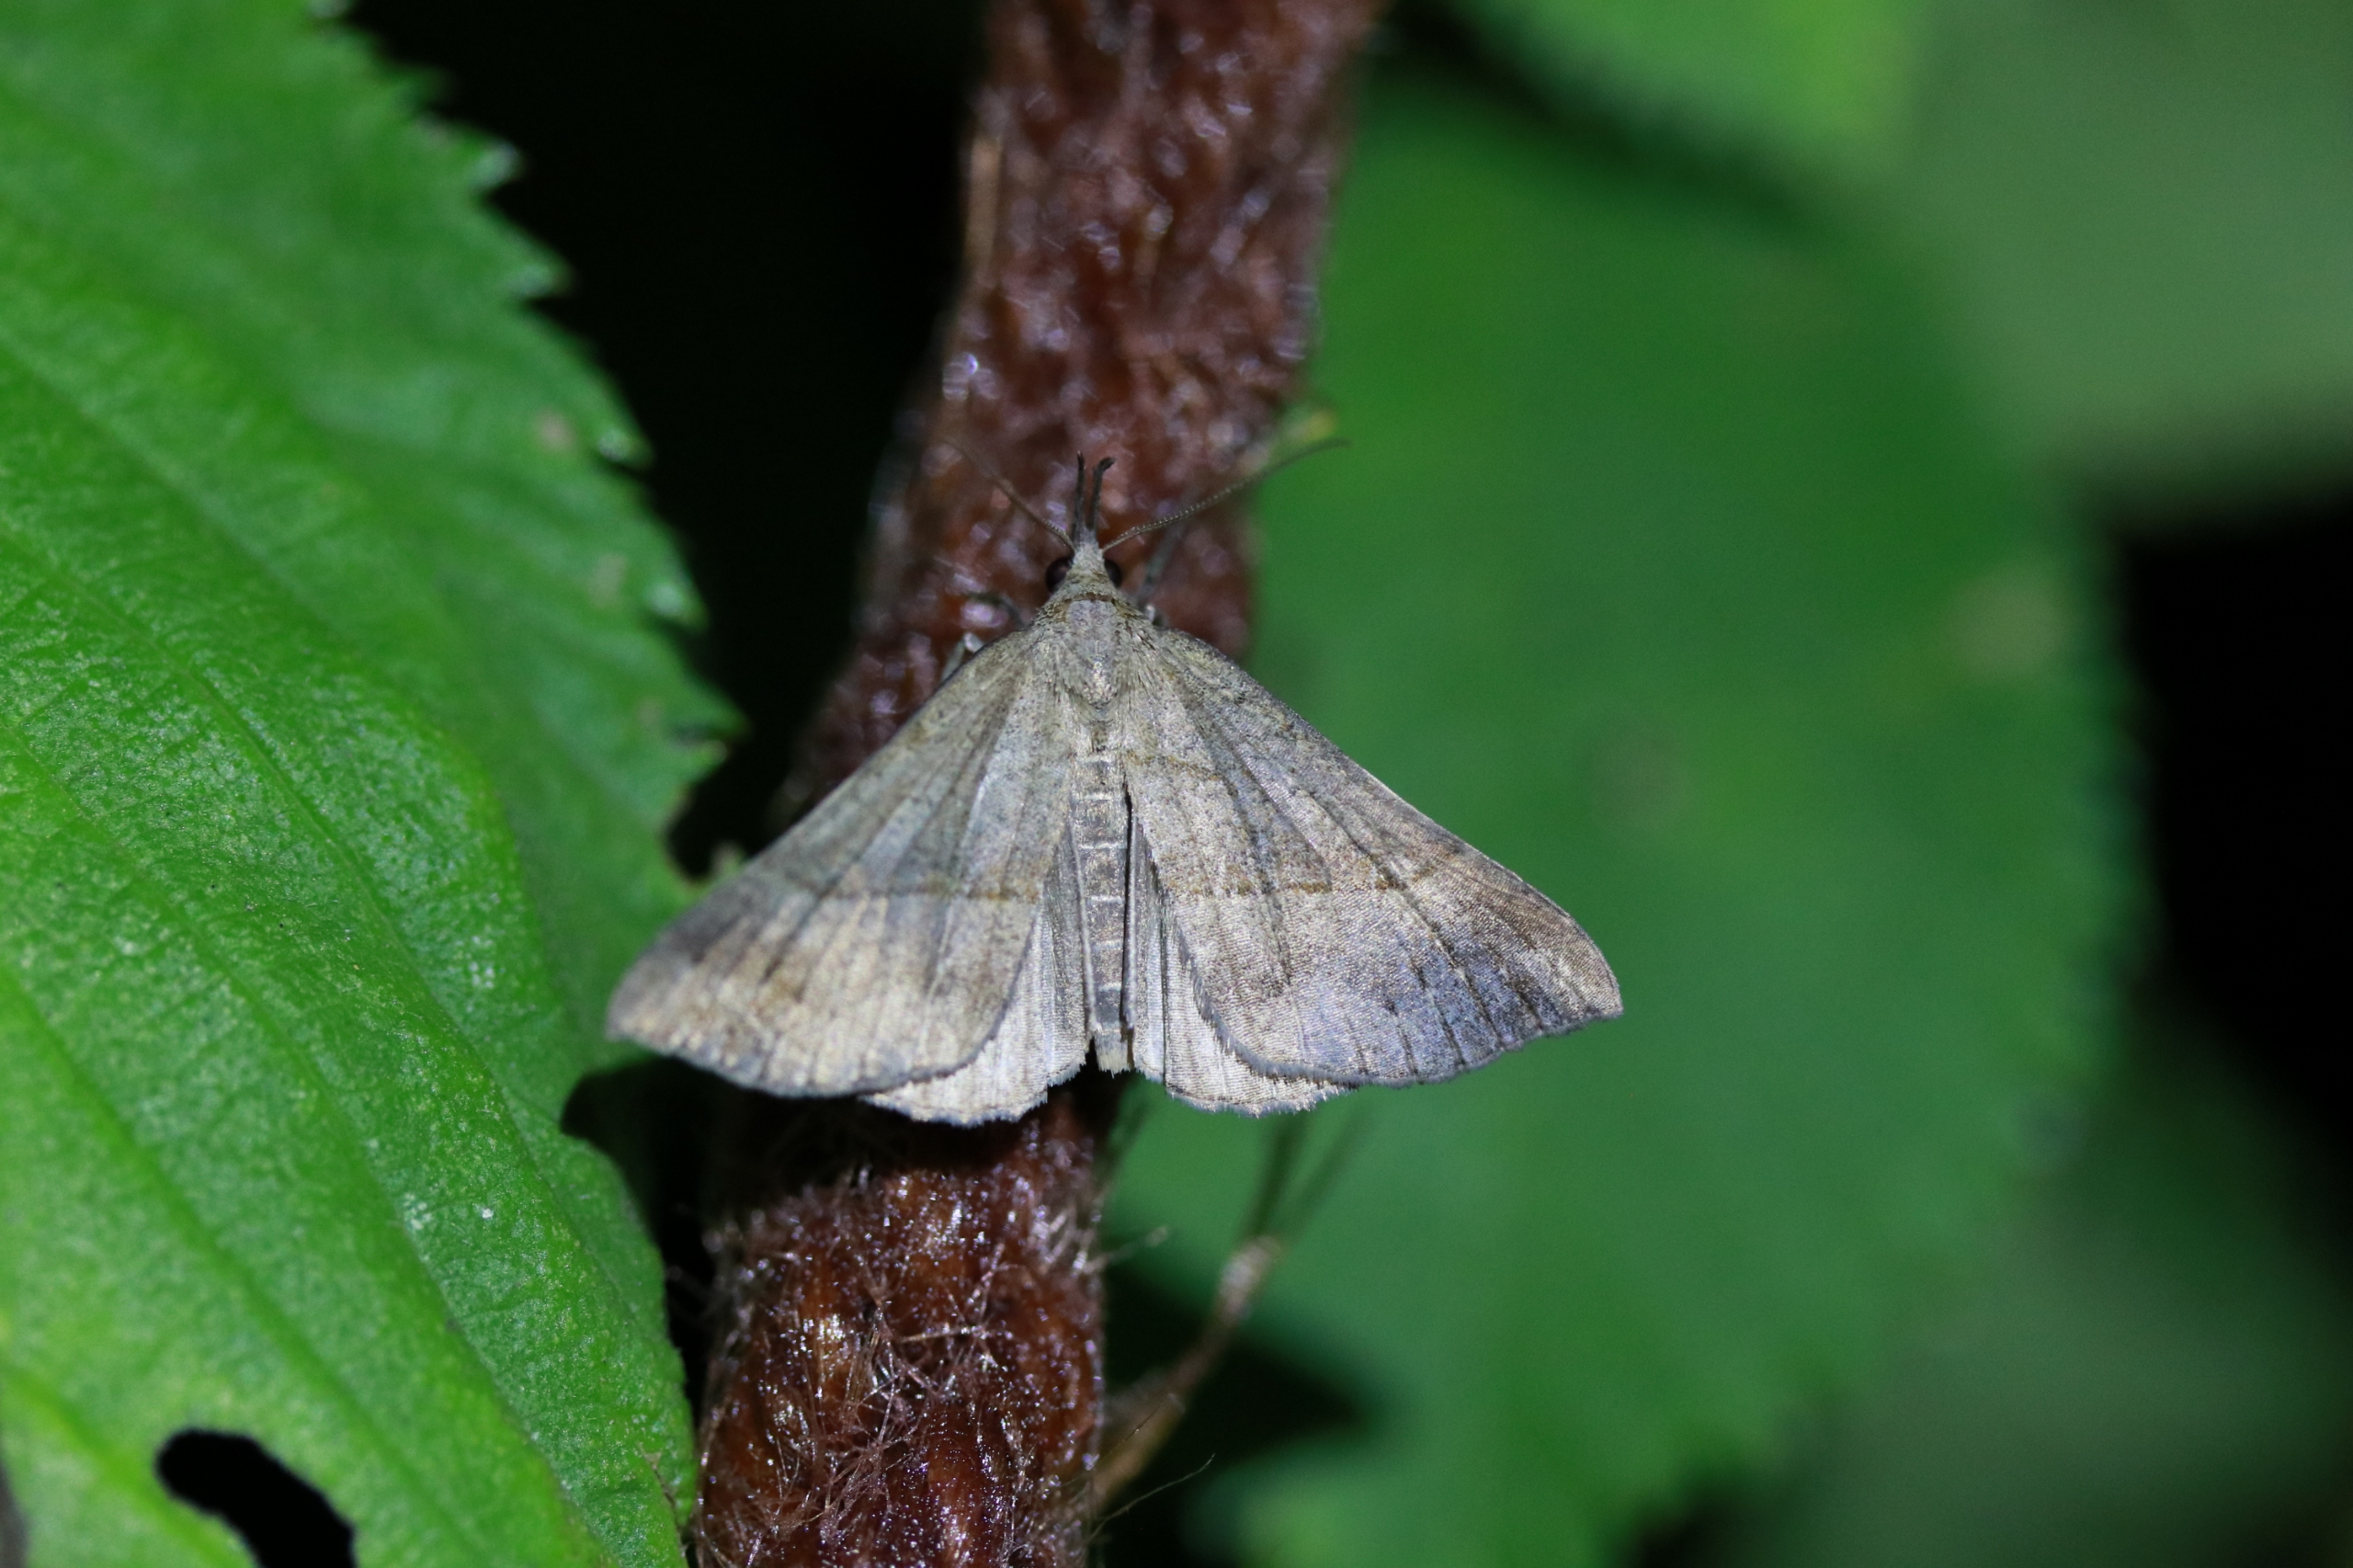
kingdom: Animalia
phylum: Arthropoda
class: Insecta
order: Lepidoptera
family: Erebidae
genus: Hypena
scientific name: Hypena proboscidalis
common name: Snudeugle
